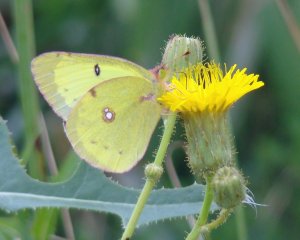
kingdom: Animalia
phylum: Arthropoda
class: Insecta
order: Lepidoptera
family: Pieridae
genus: Colias
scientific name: Colias philodice
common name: Clouded Sulphur
